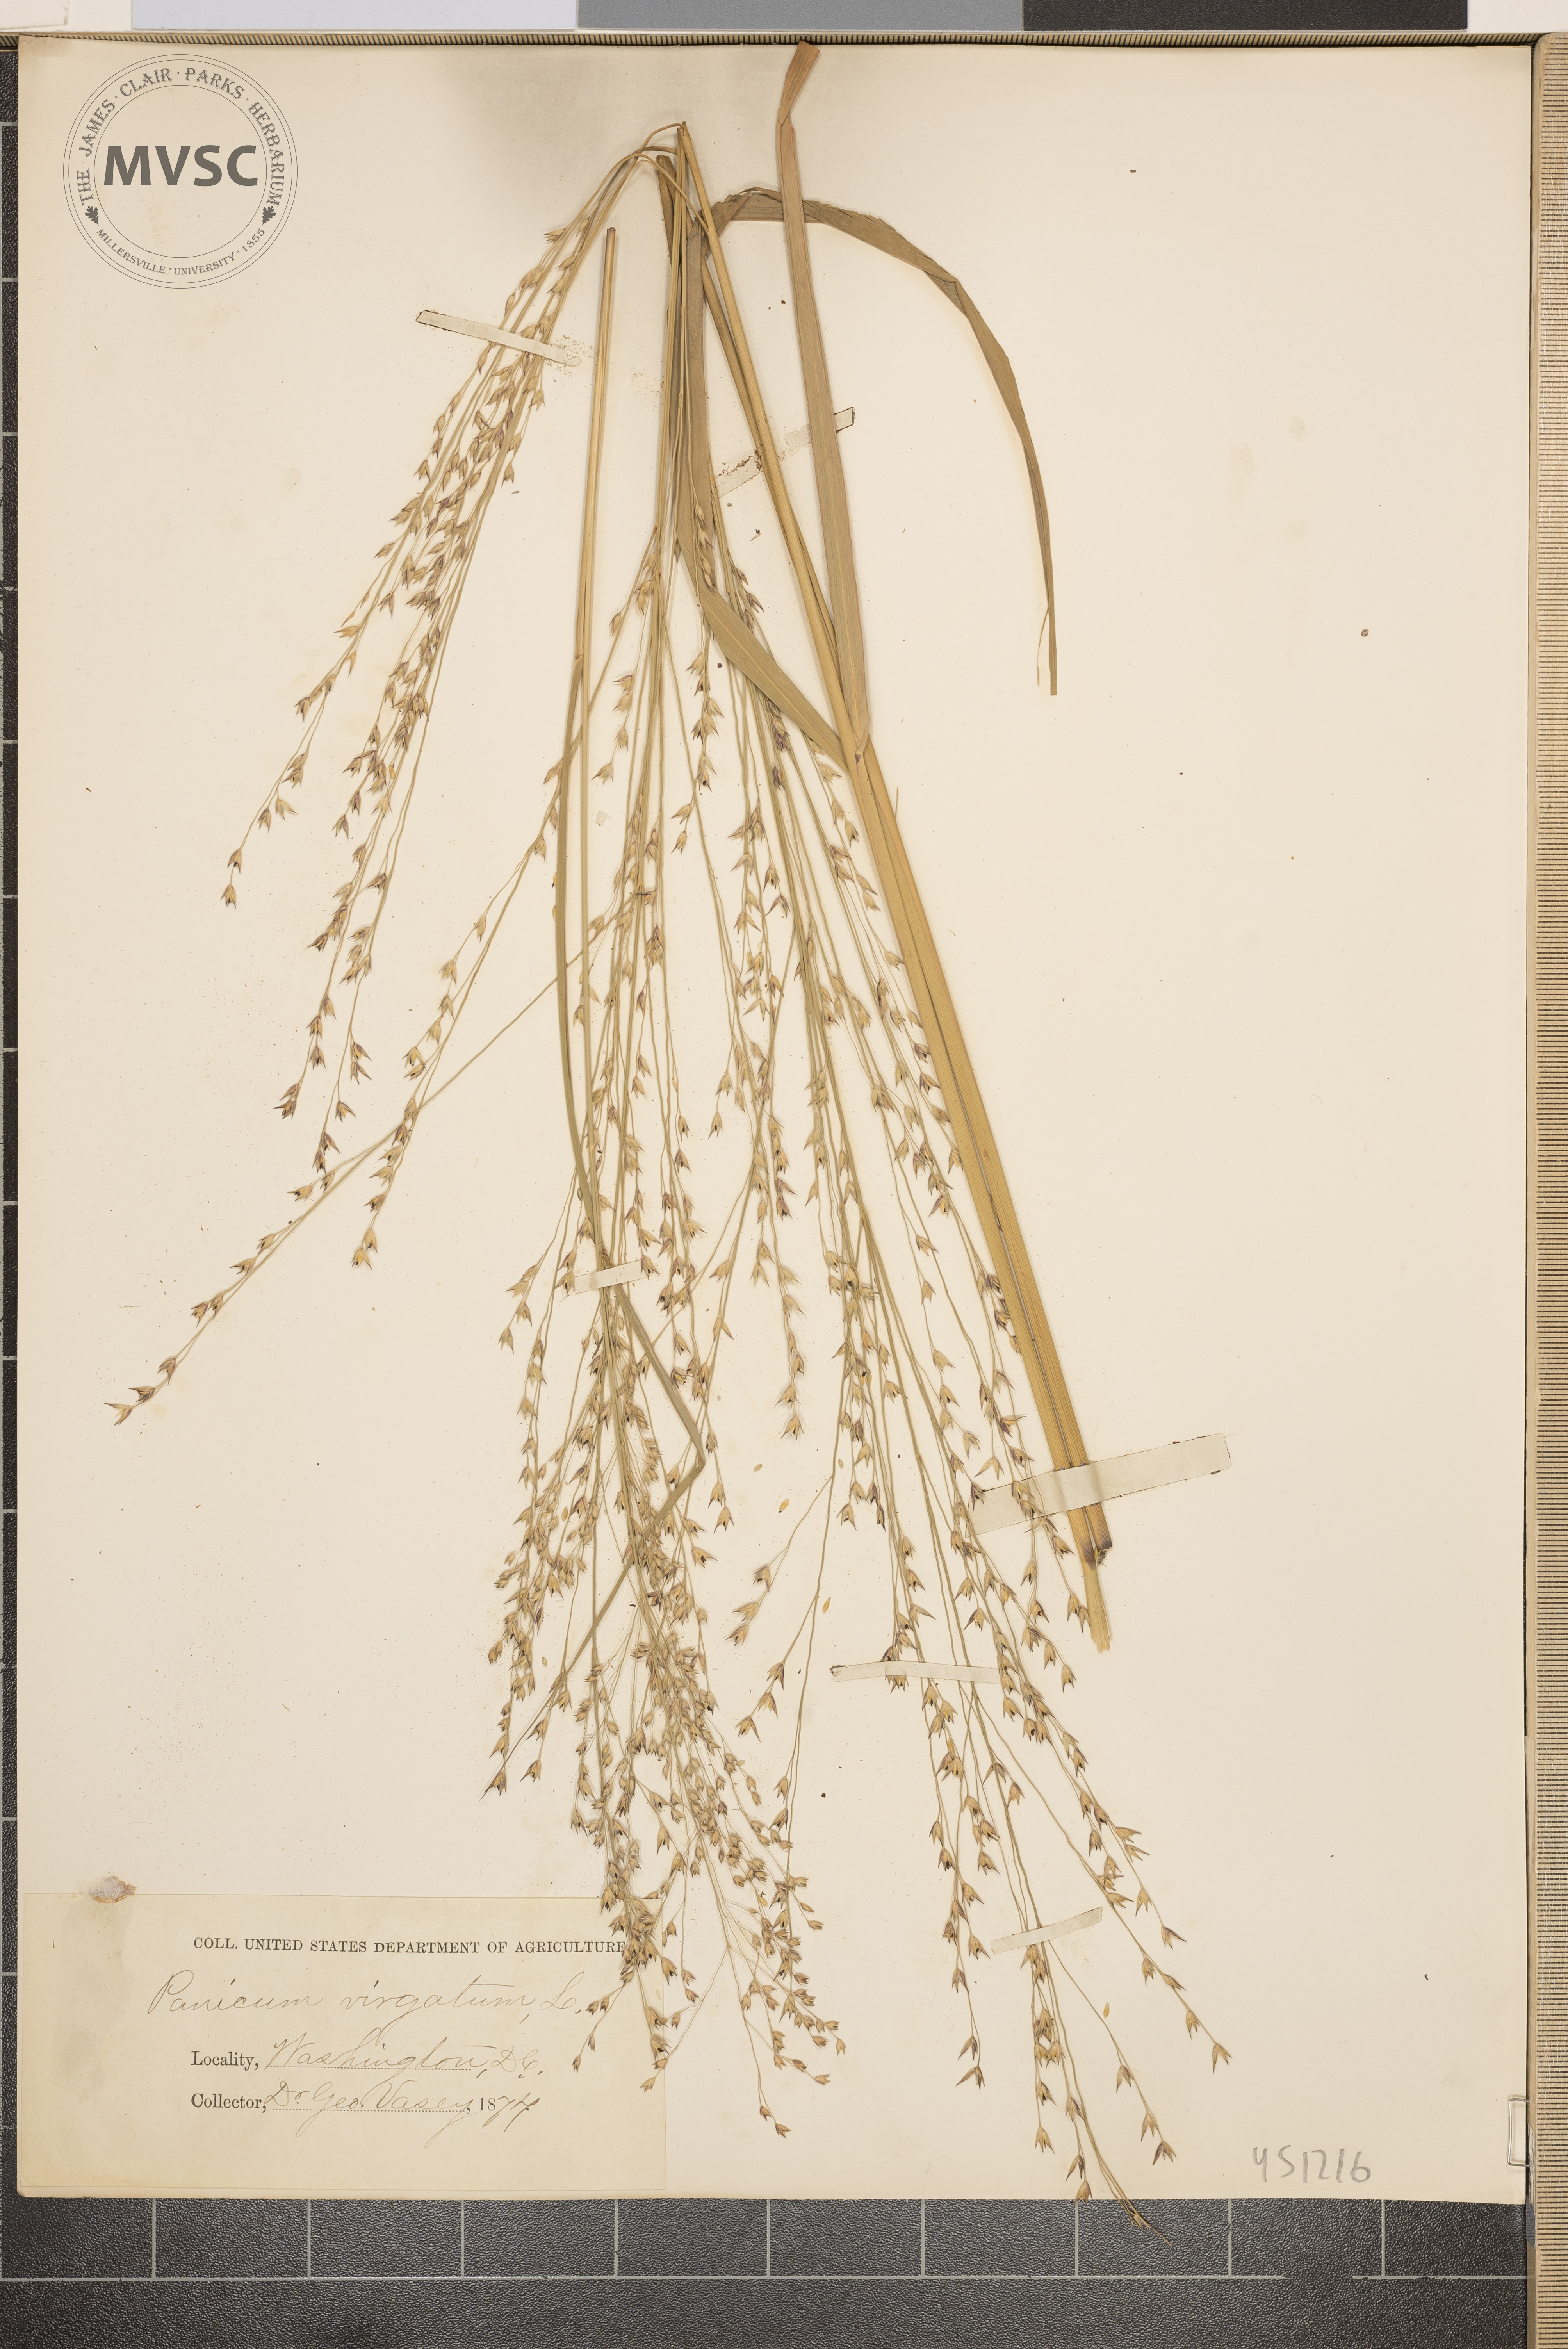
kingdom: Plantae
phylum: Tracheophyta
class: Liliopsida
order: Poales
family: Poaceae
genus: Panicum
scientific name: Panicum virgatum
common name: Switchgrass
